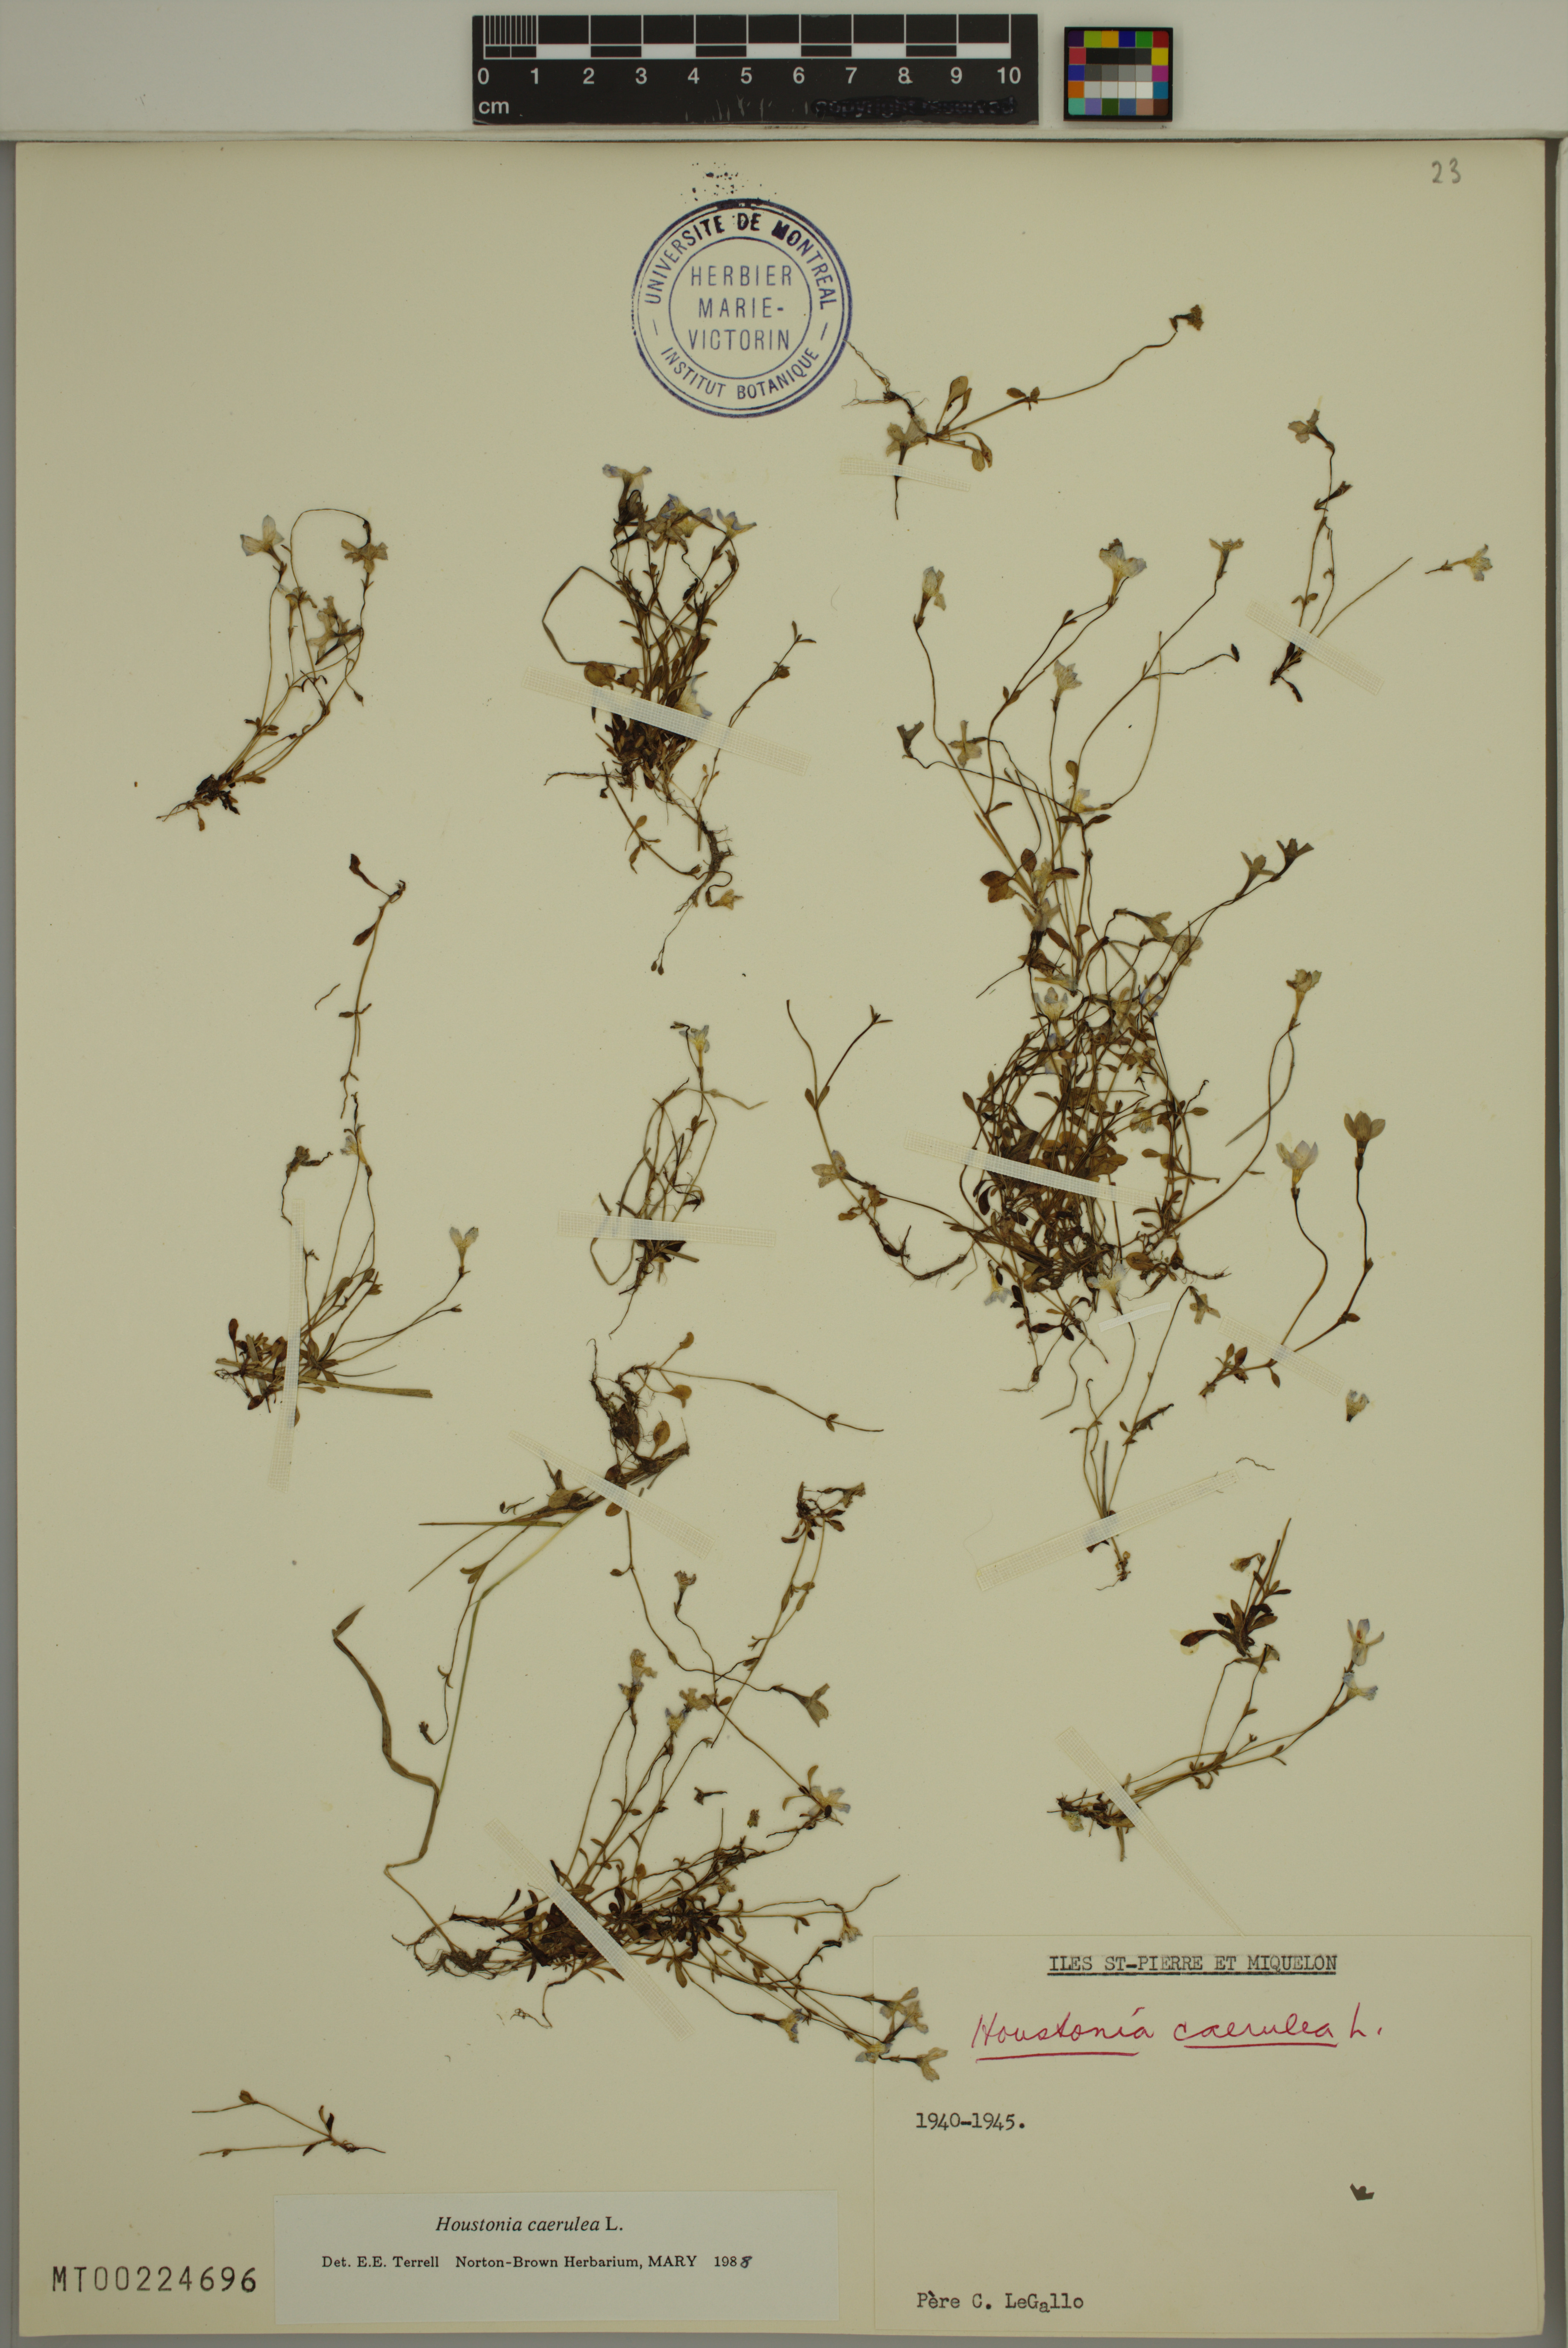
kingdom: Plantae
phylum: Tracheophyta
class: Magnoliopsida
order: Gentianales
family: Rubiaceae
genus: Houstonia
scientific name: Houstonia caerulea
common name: Bluets
